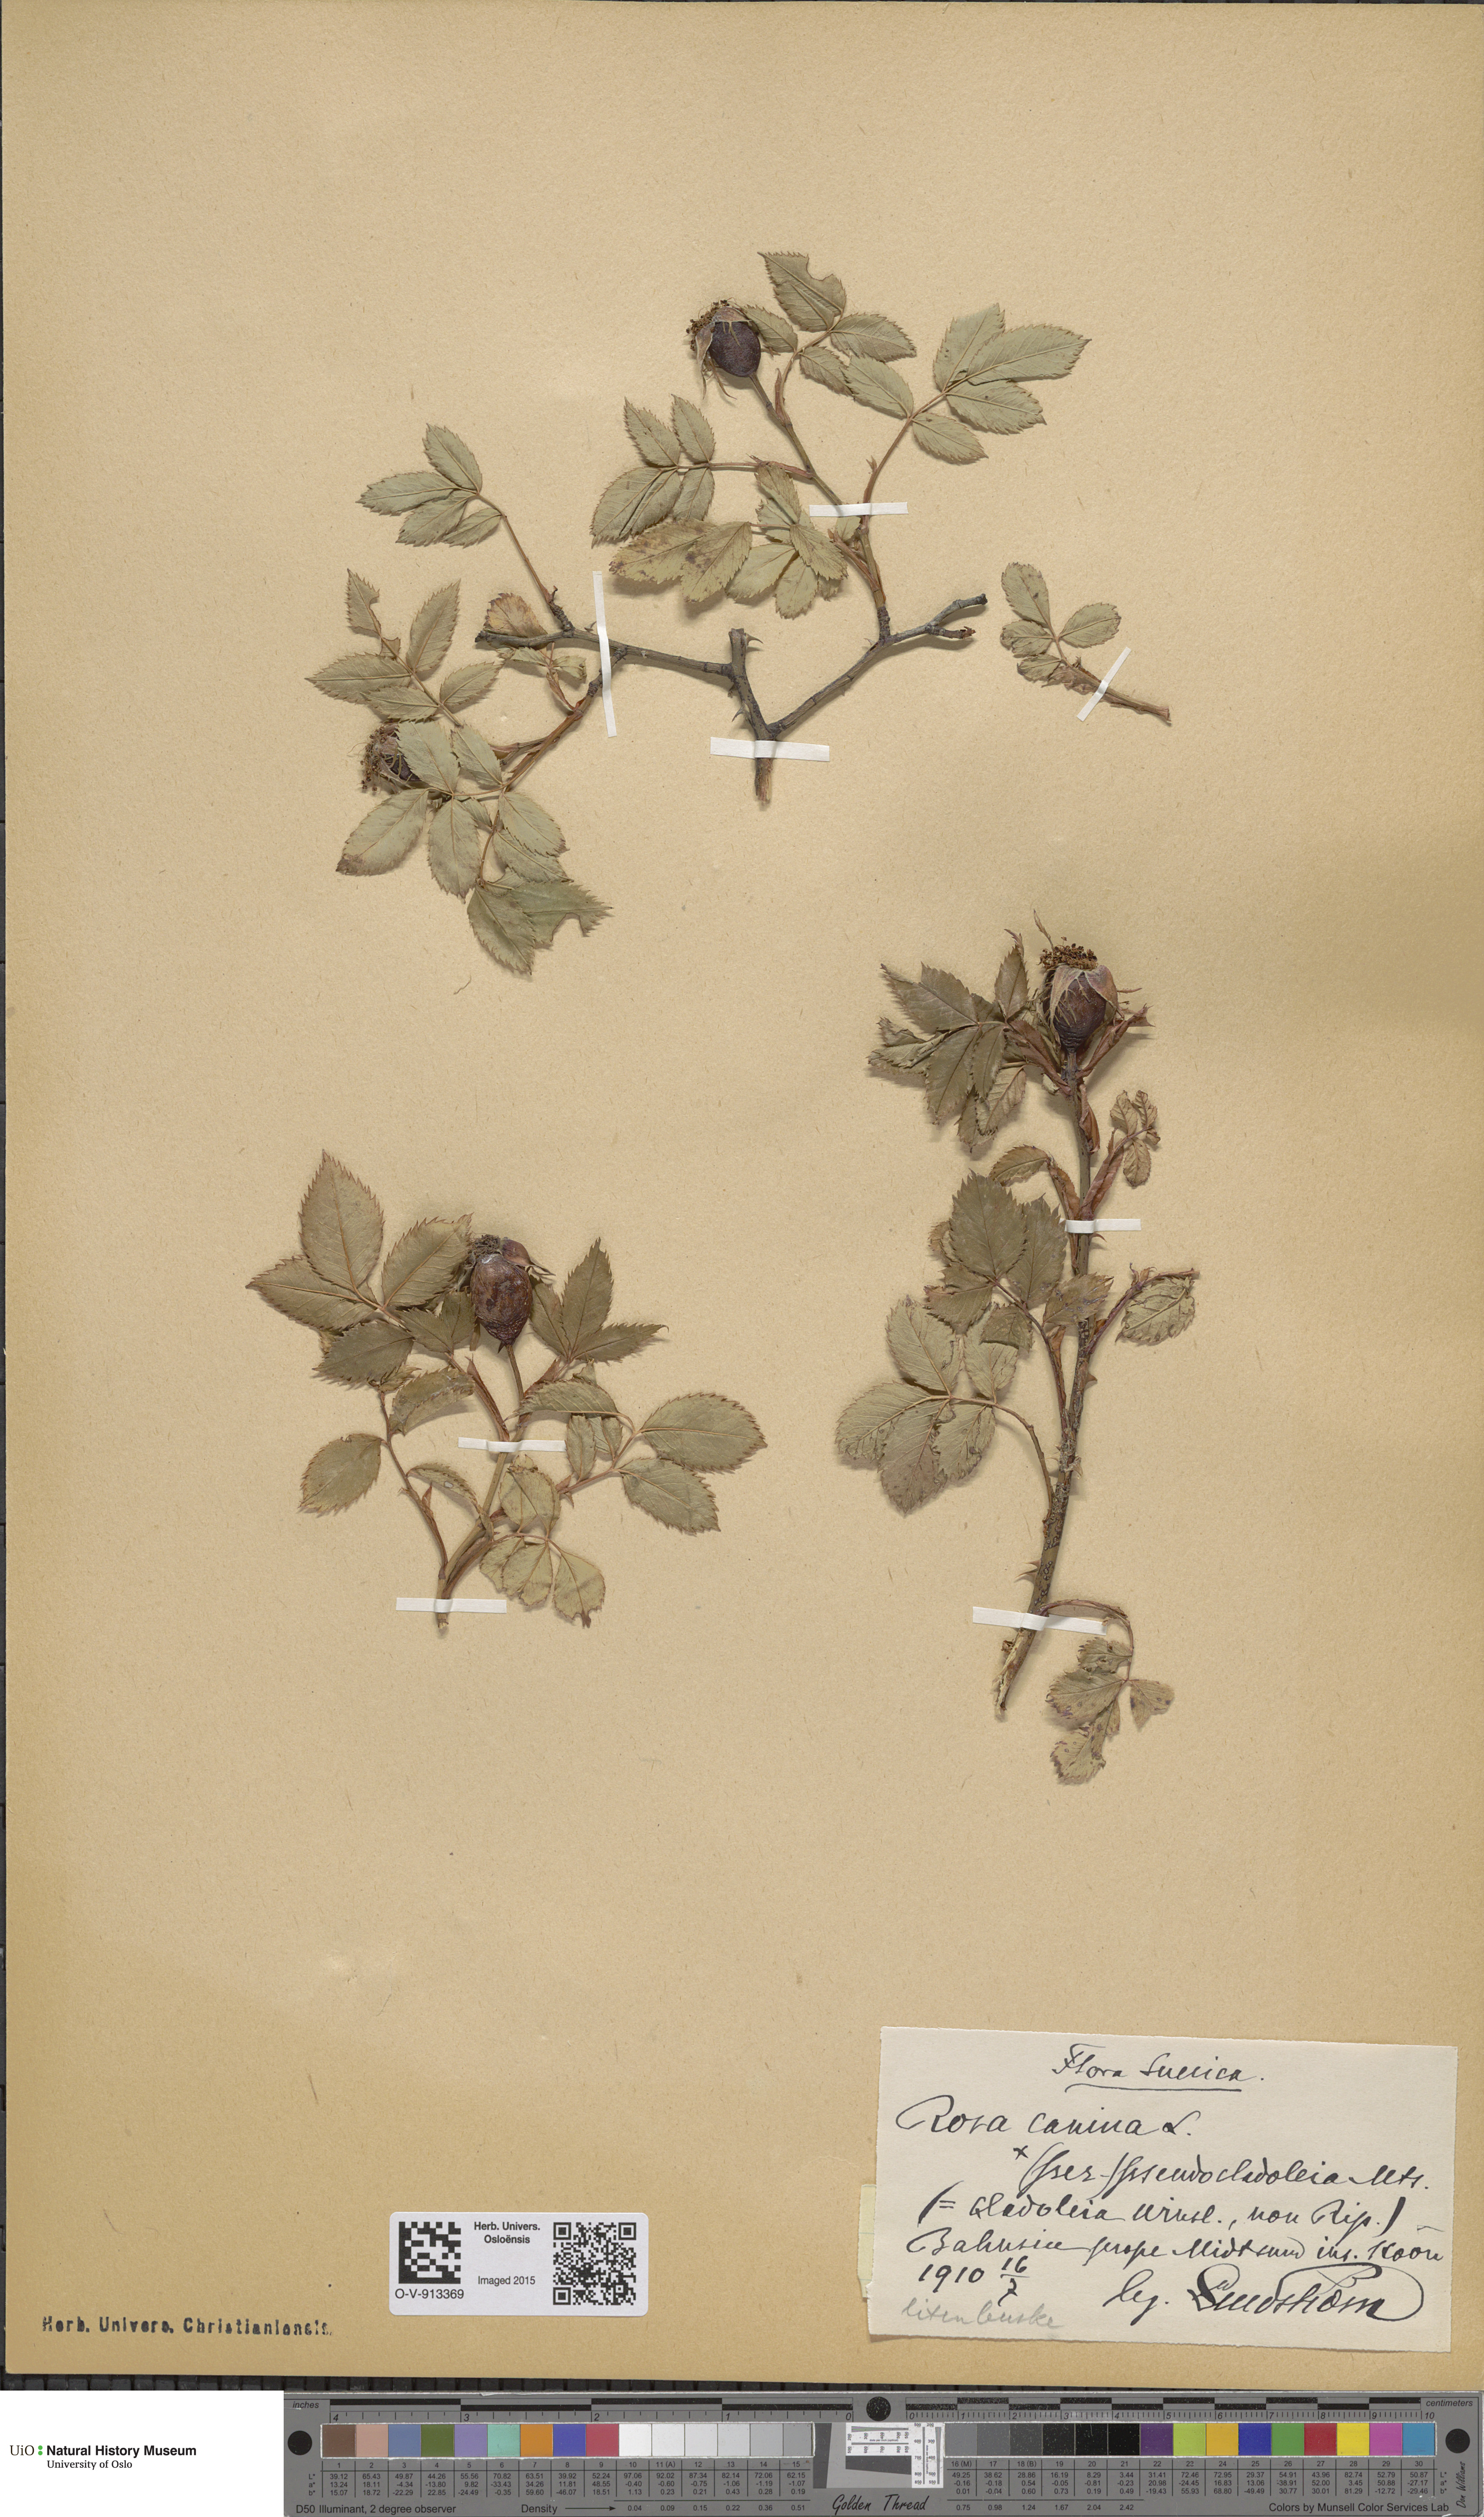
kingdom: Plantae
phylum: Tracheophyta
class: Magnoliopsida
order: Rosales
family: Rosaceae
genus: Rosa
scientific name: Rosa canina
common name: Dog rose
